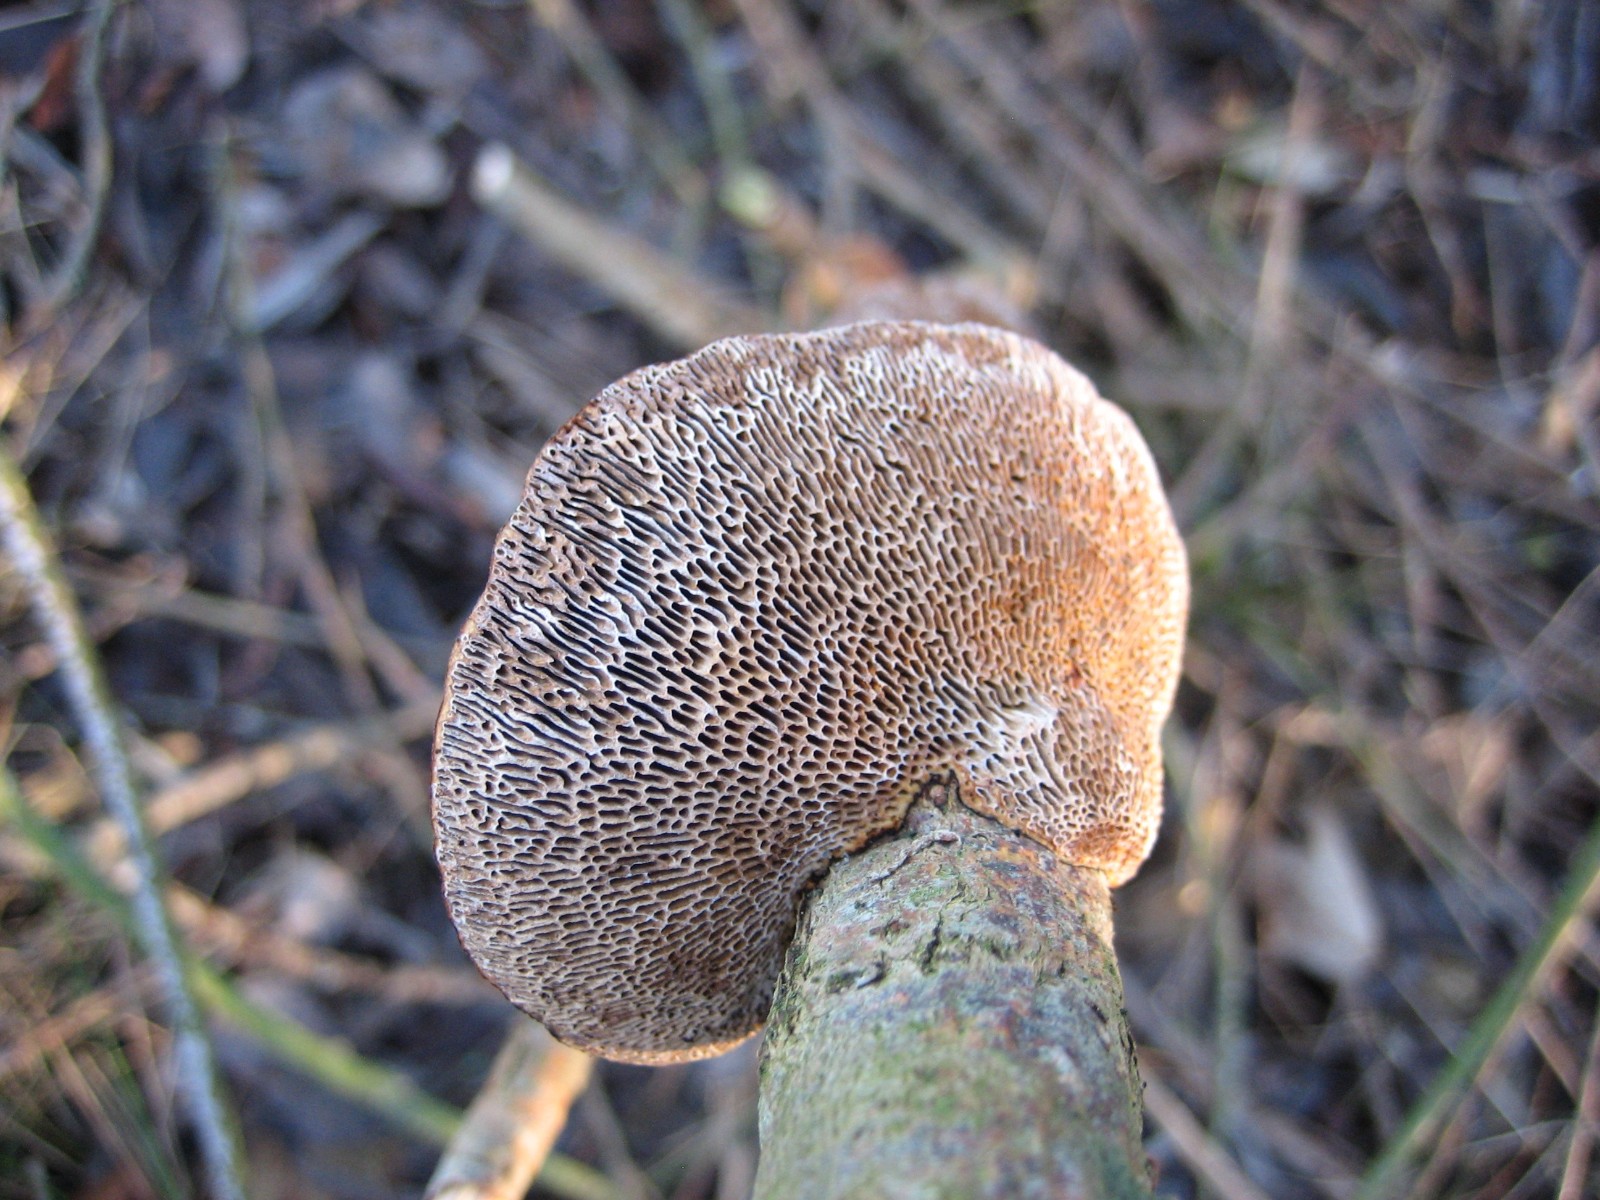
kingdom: Fungi
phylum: Basidiomycota
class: Agaricomycetes
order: Polyporales
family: Polyporaceae
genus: Daedaleopsis
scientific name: Daedaleopsis confragosa
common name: rødmende læderporesvamp
